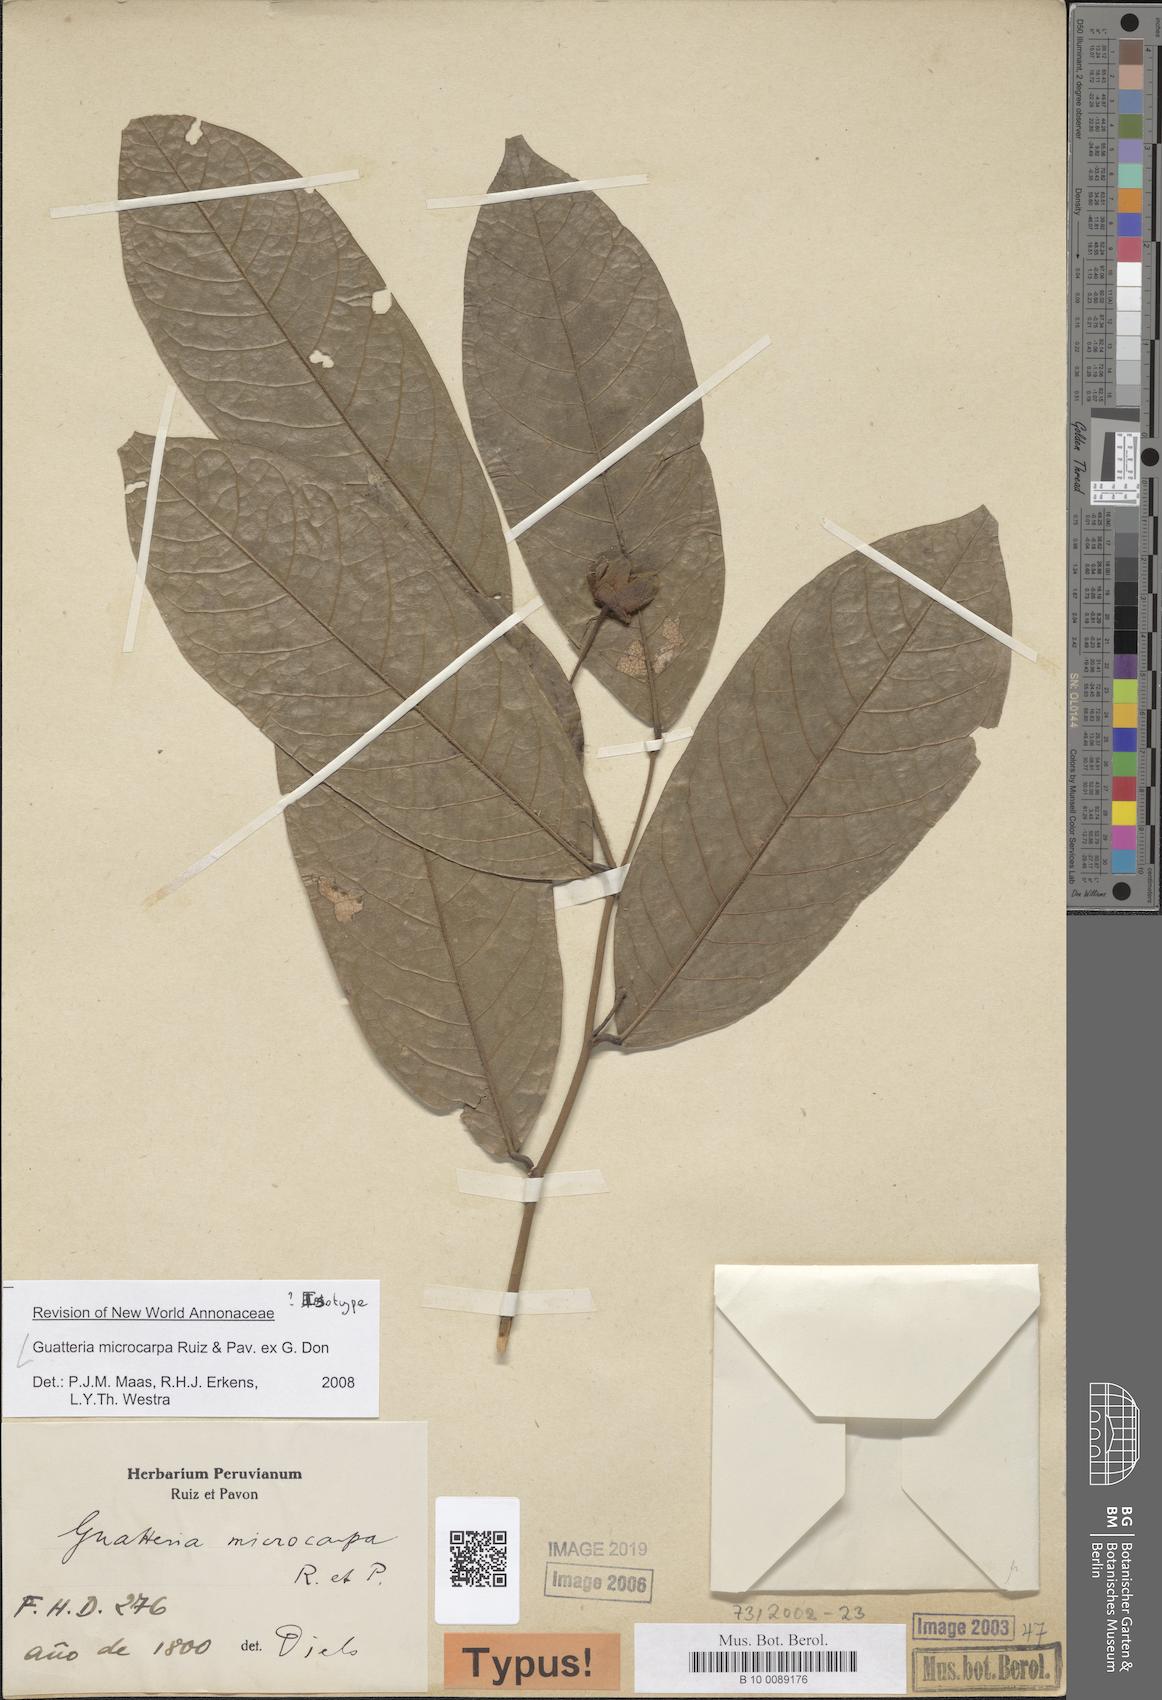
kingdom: Plantae
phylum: Tracheophyta
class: Magnoliopsida
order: Magnoliales
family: Annonaceae
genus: Guatteria
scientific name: Guatteria microcarpa
